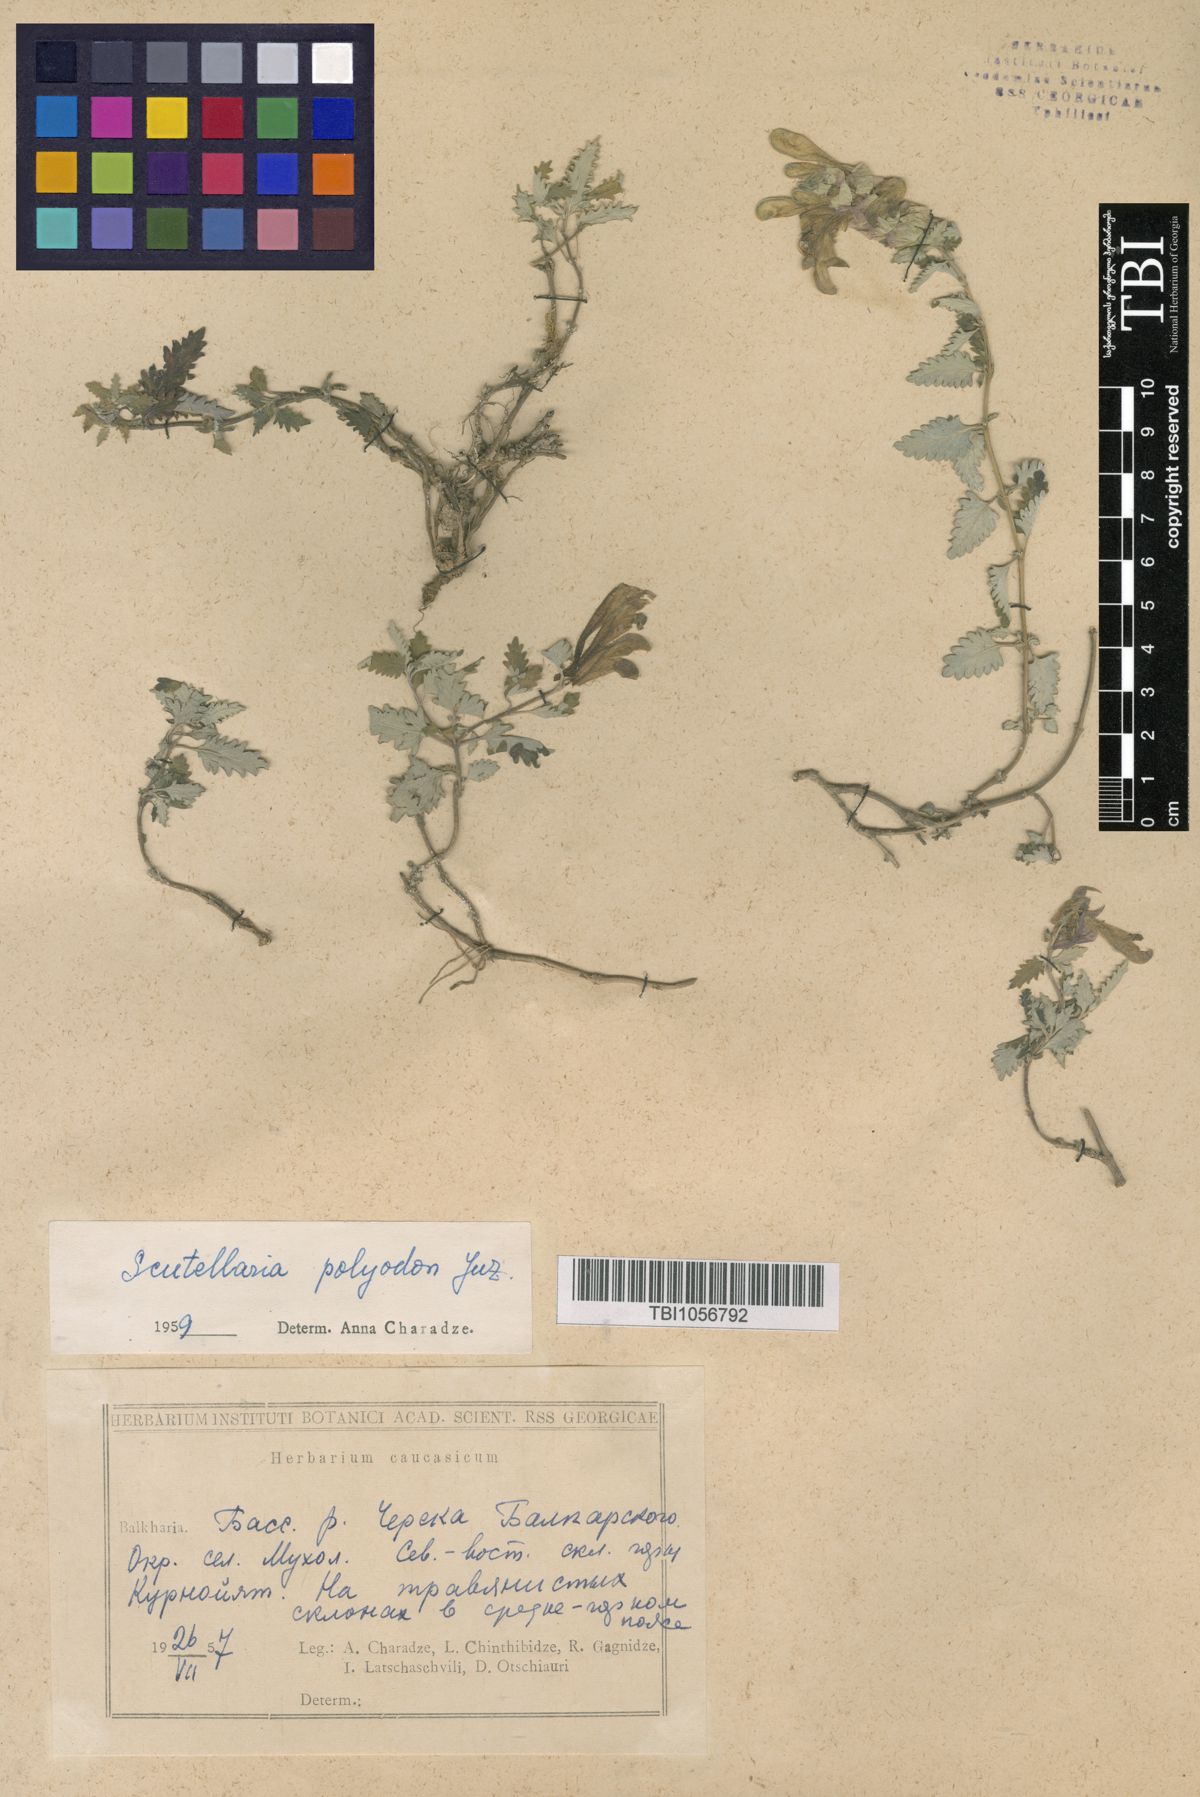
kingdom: Plantae
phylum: Tracheophyta
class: Magnoliopsida
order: Lamiales
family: Lamiaceae
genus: Scutellaria
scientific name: Scutellaria caucasica
